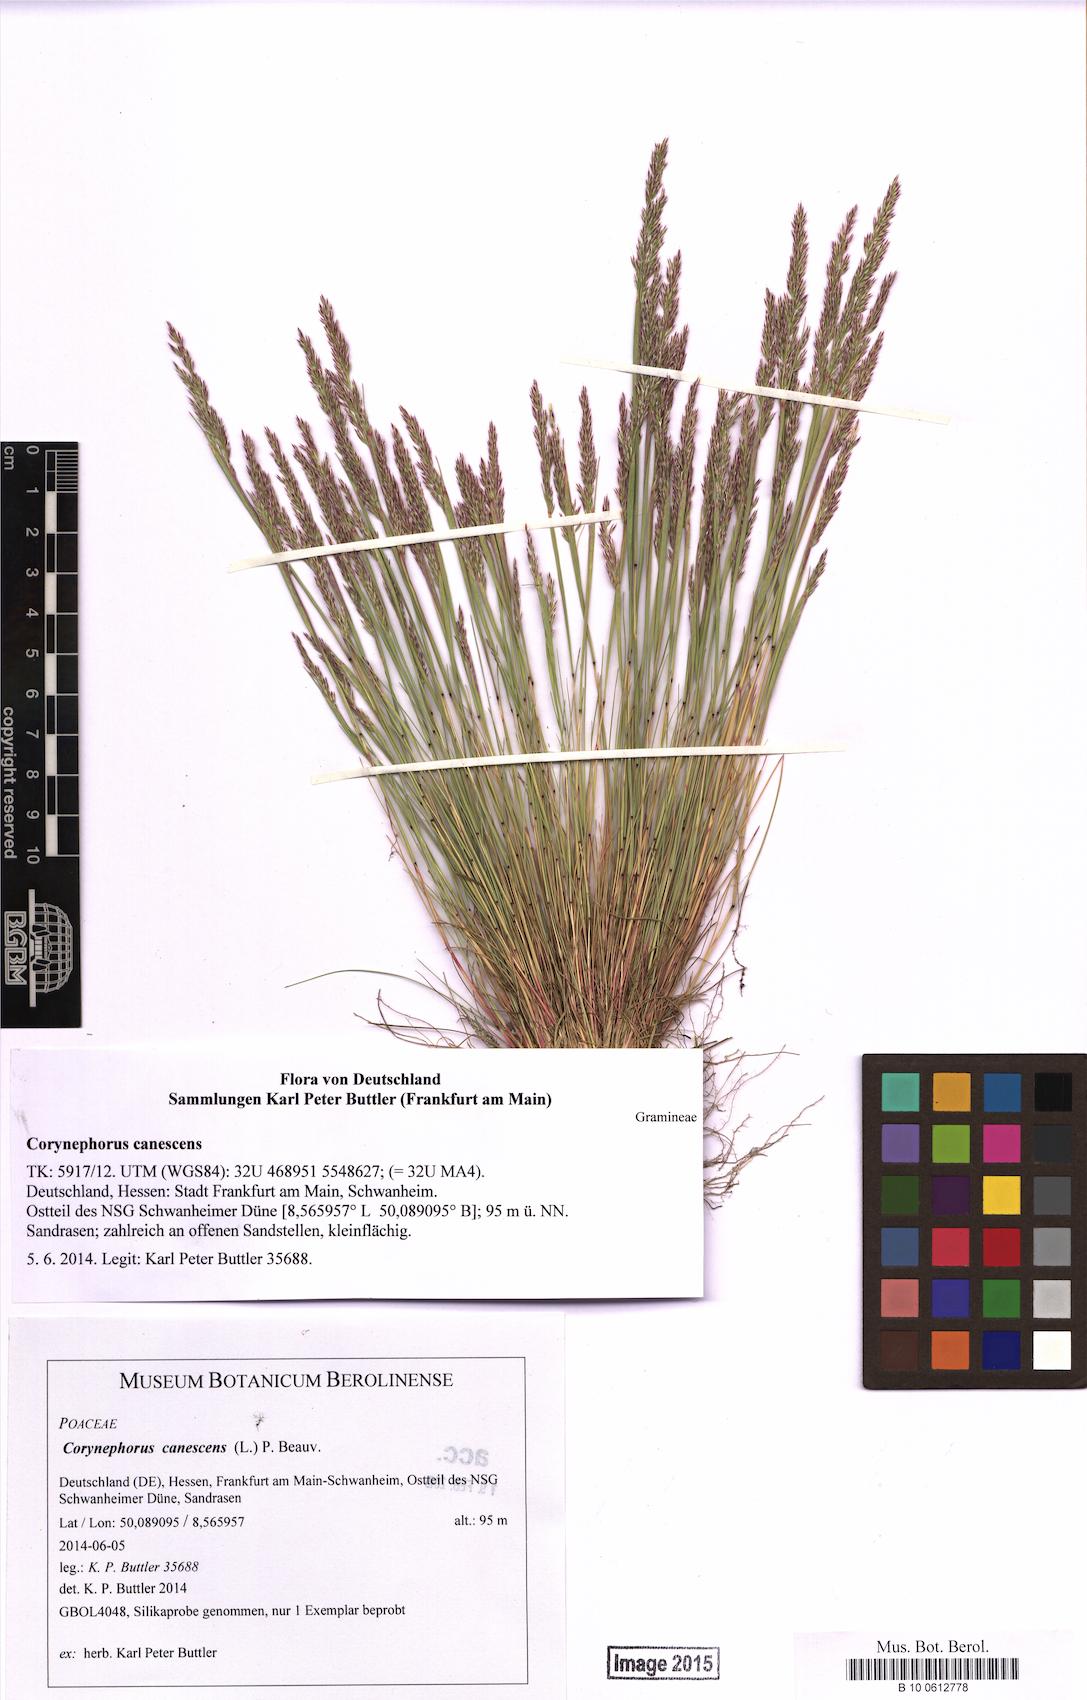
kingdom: Plantae
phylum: Tracheophyta
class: Liliopsida
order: Poales
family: Poaceae
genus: Corynephorus
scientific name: Corynephorus canescens
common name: Grey hair-grass
